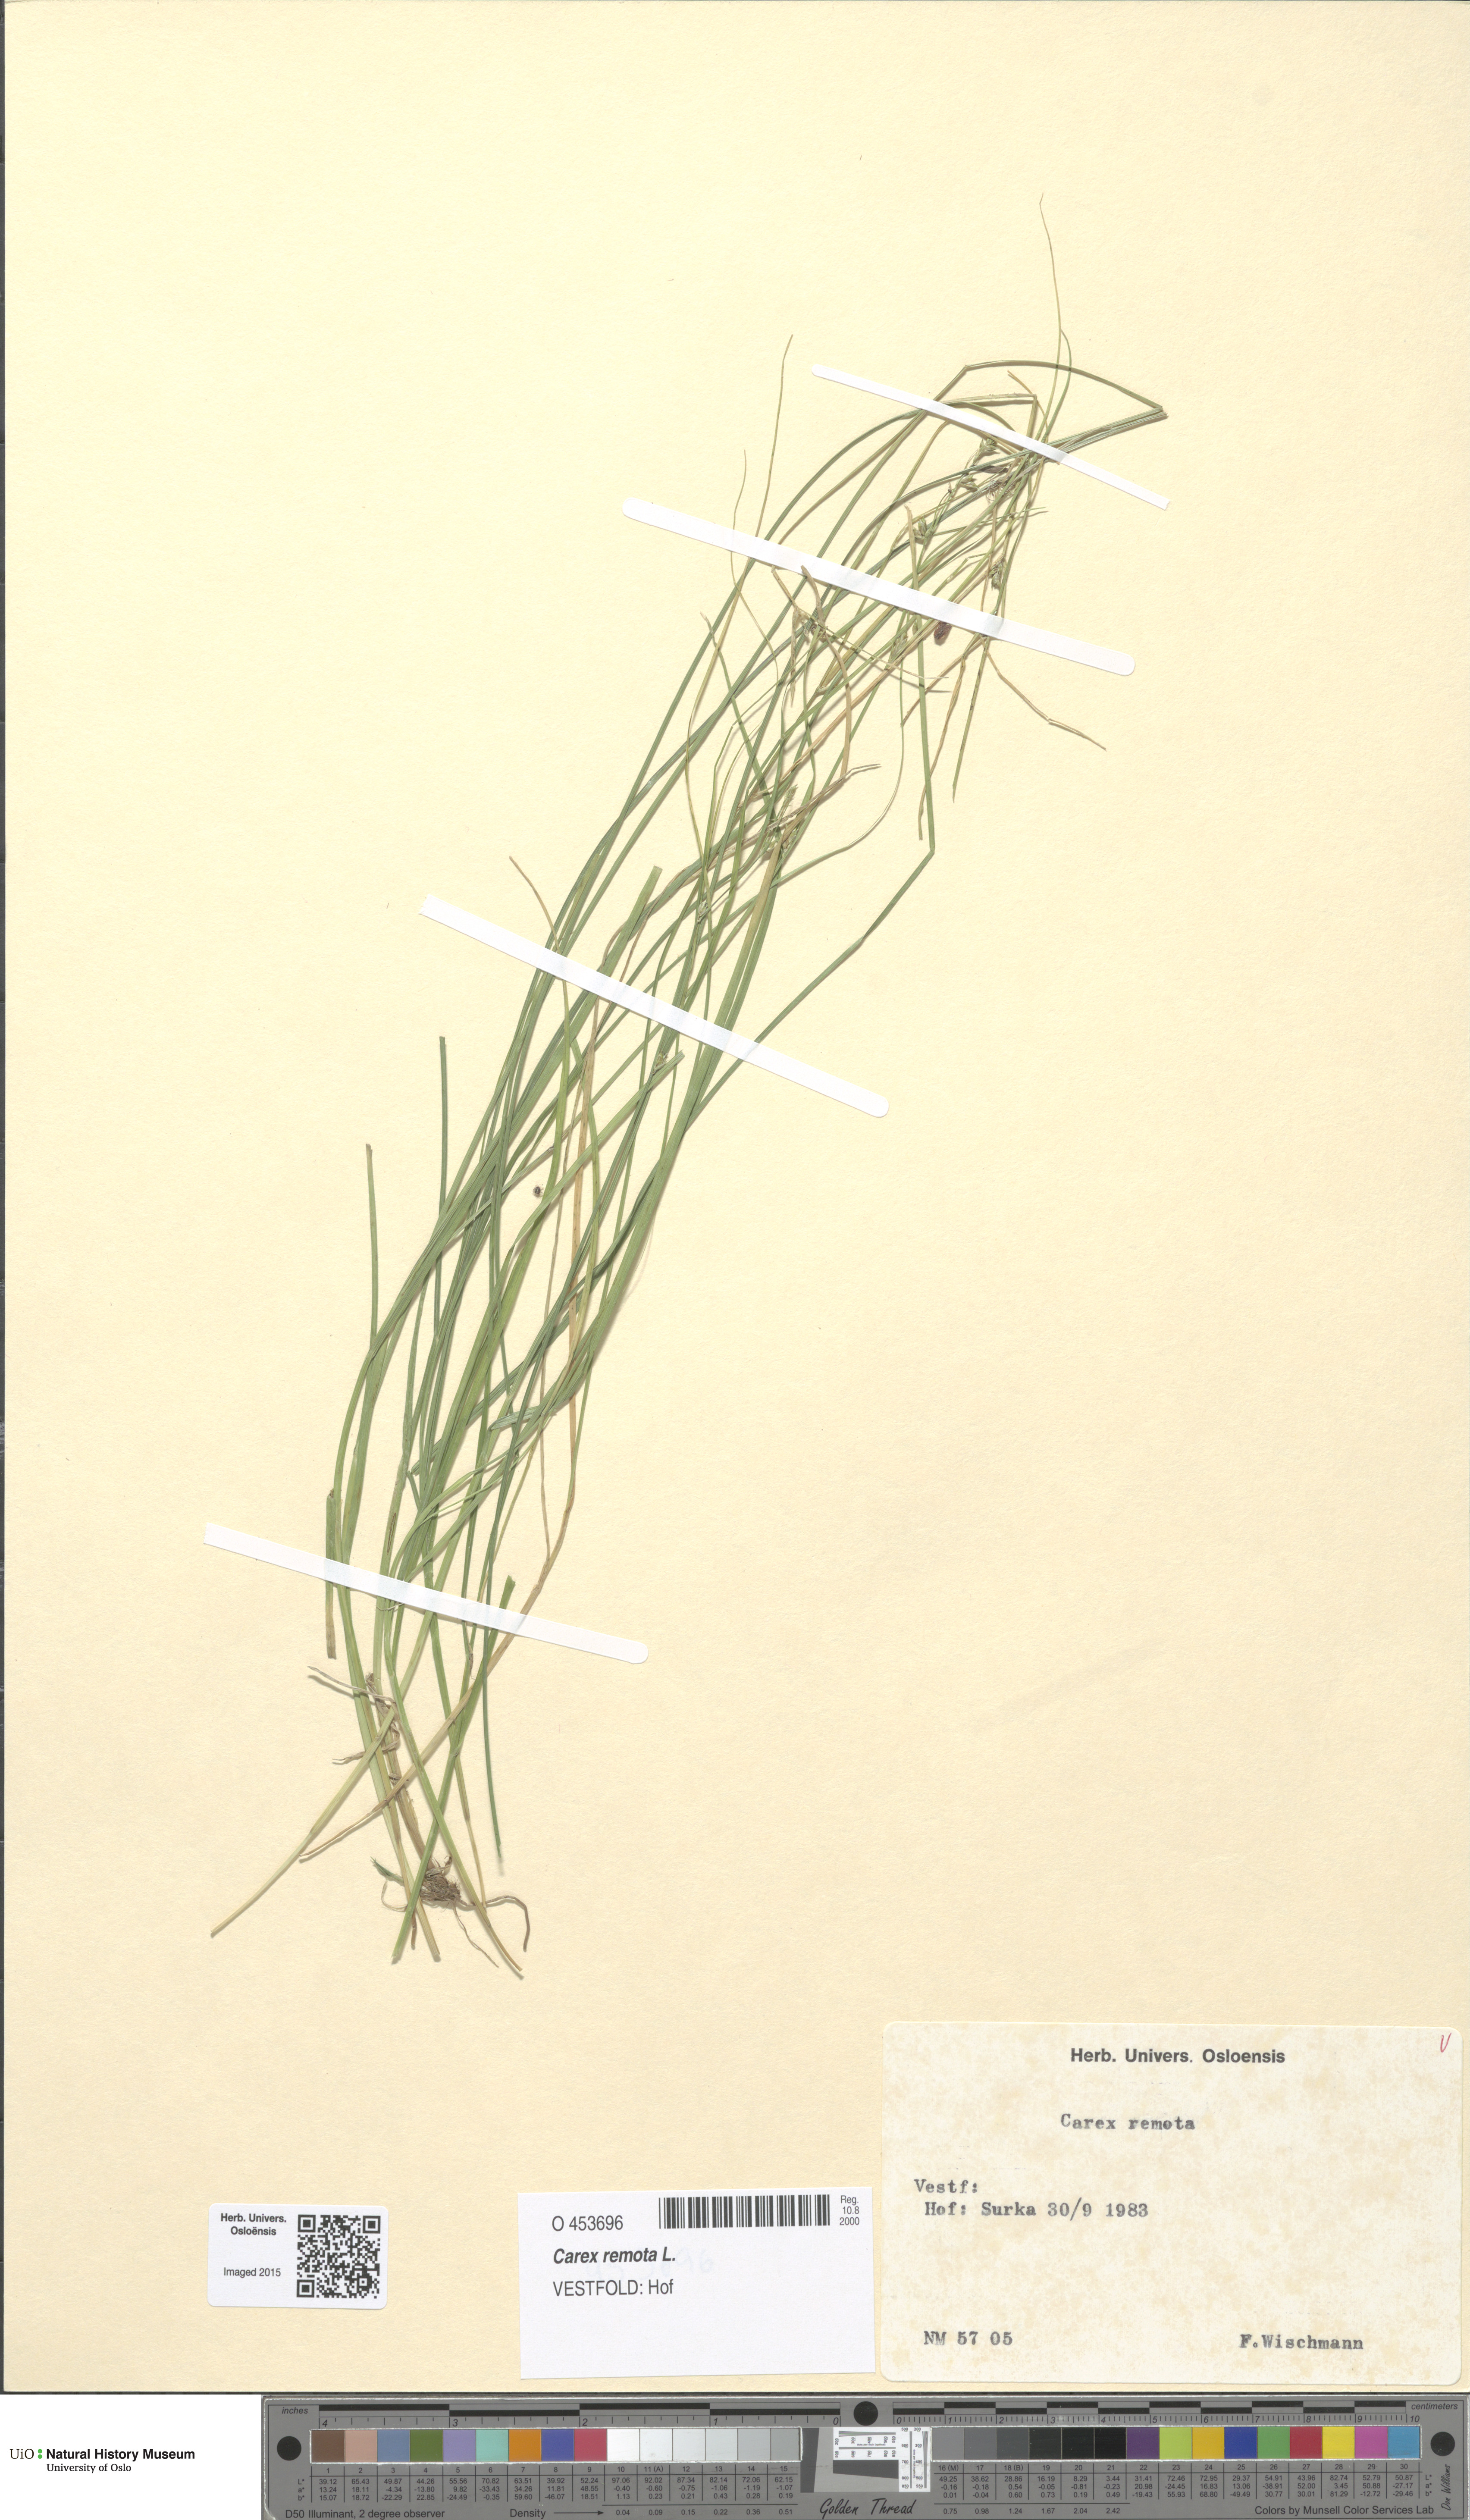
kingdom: Plantae
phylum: Tracheophyta
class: Liliopsida
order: Poales
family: Cyperaceae
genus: Carex
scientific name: Carex remota
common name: Remote sedge
